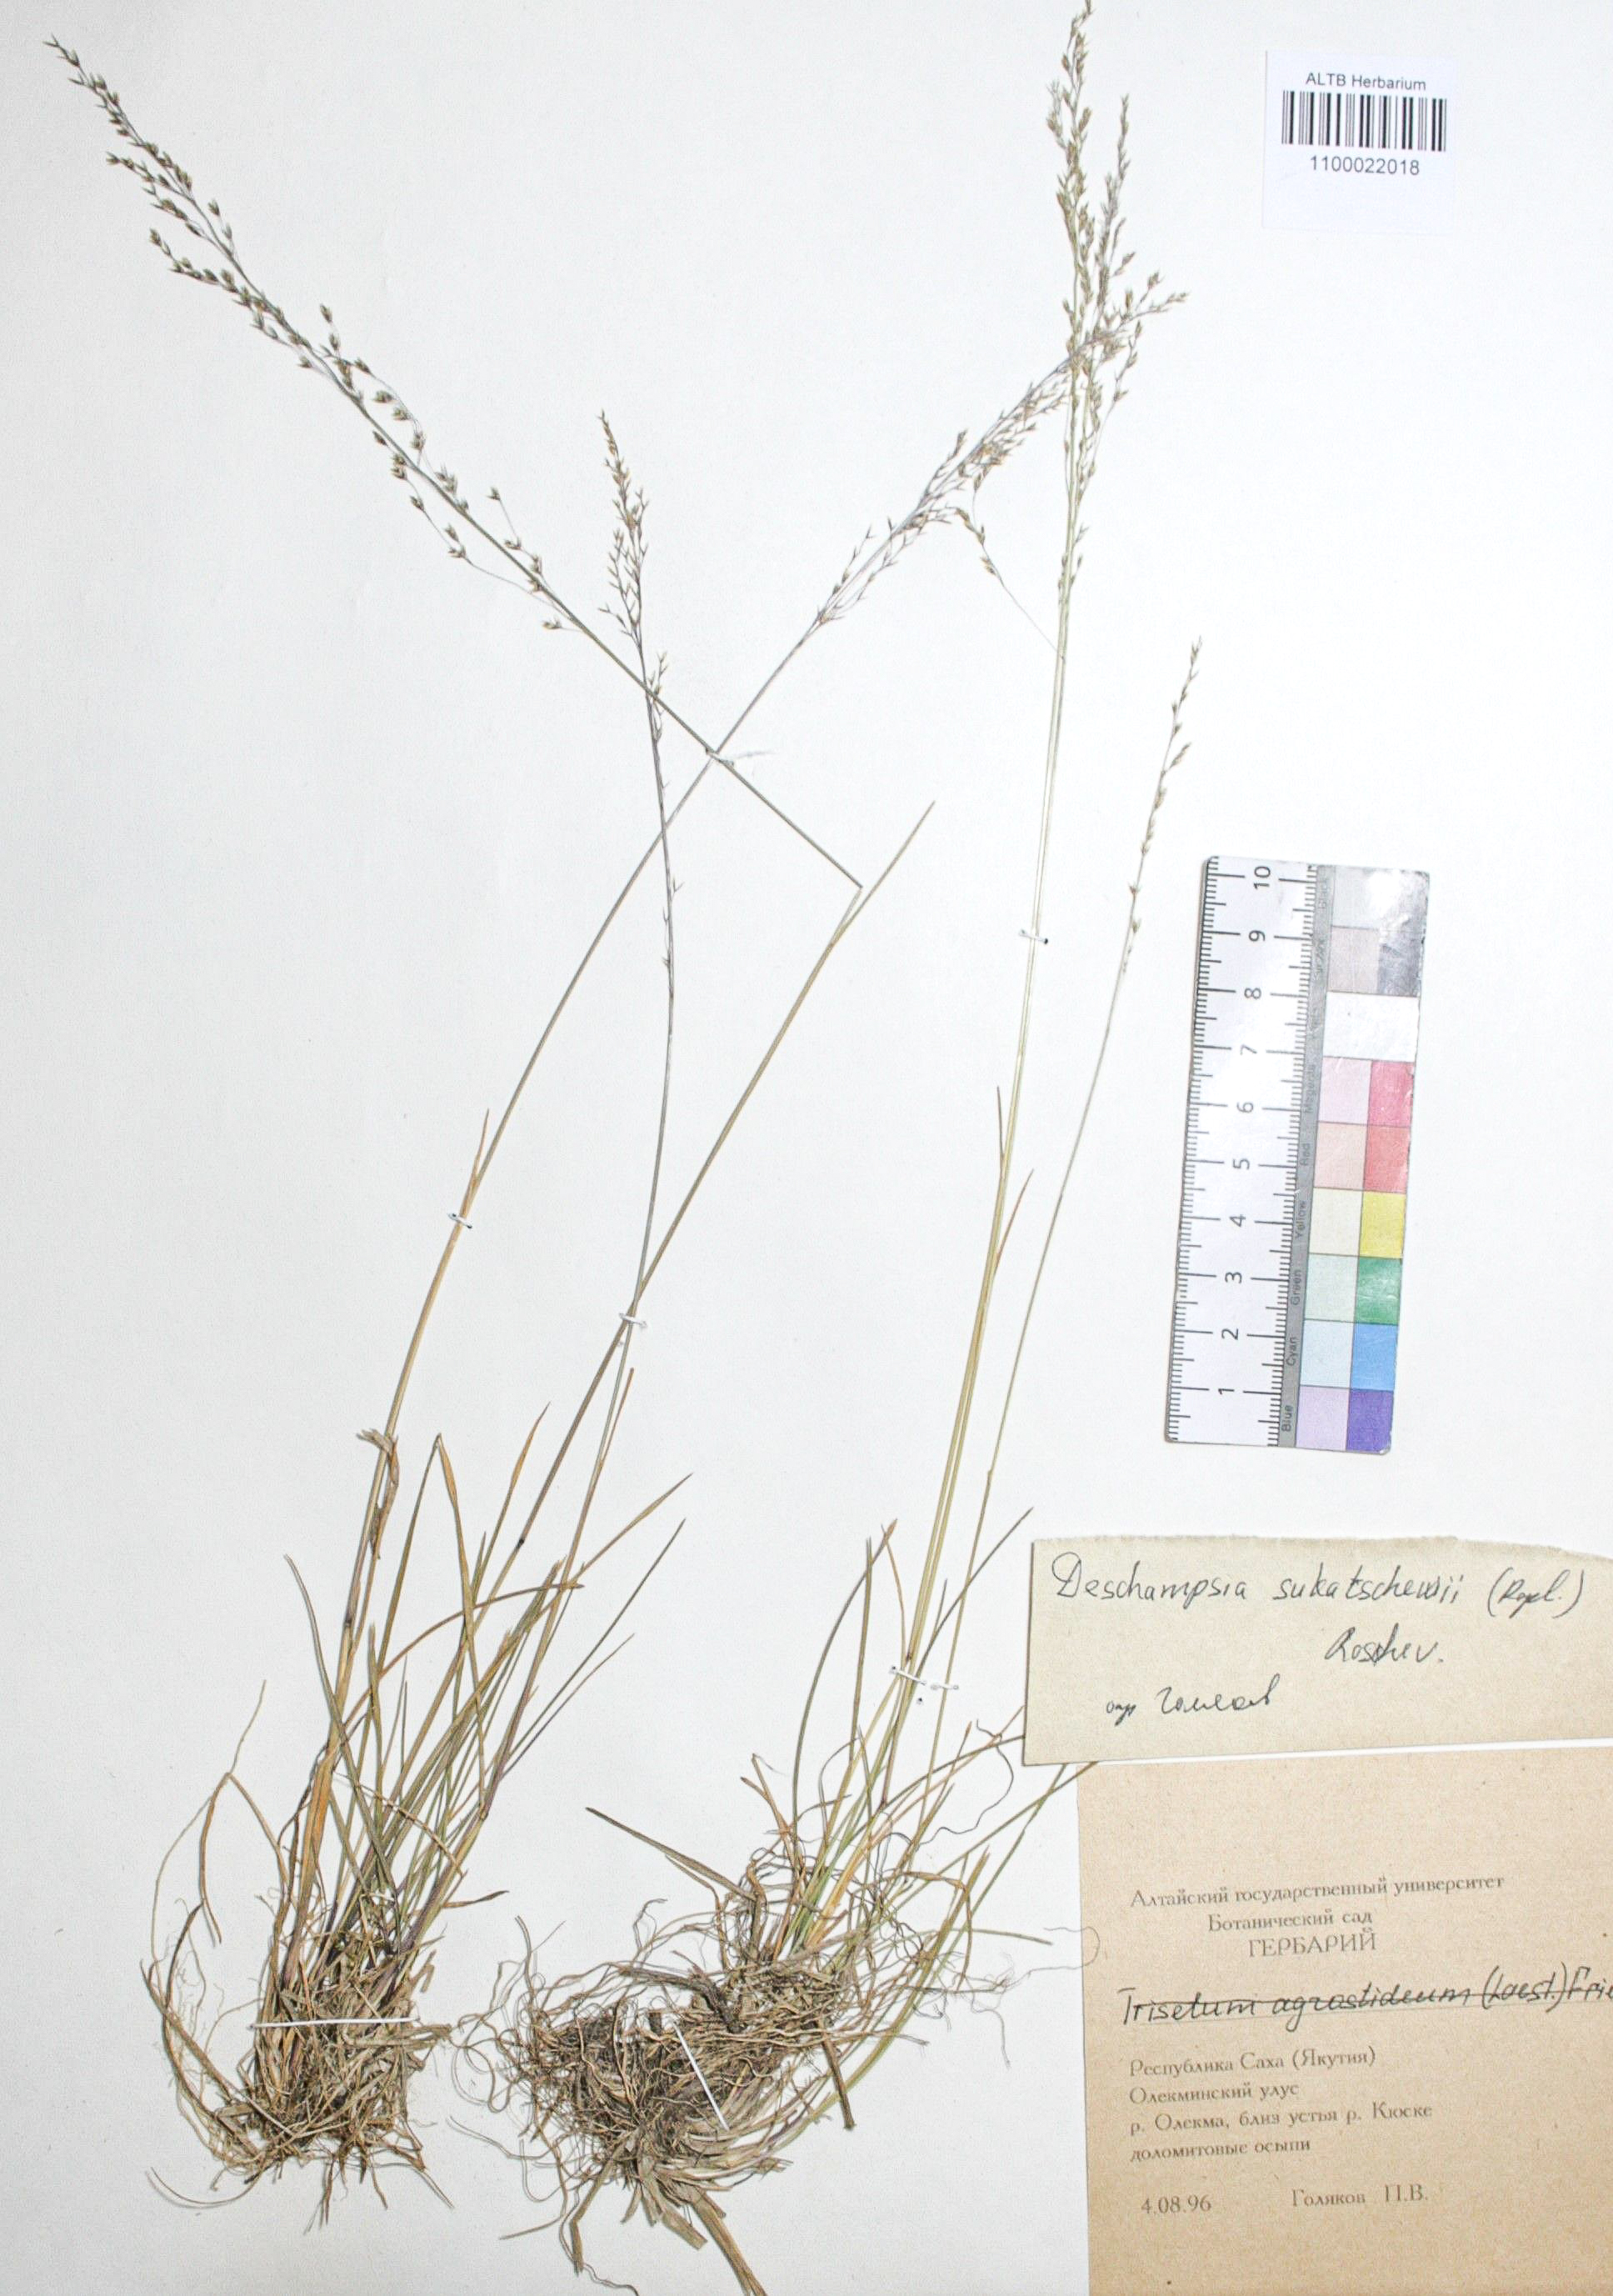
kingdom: Plantae
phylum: Tracheophyta
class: Liliopsida
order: Poales
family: Poaceae
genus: Deschampsia
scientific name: Deschampsia cespitosa
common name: Tufted hair-grass
